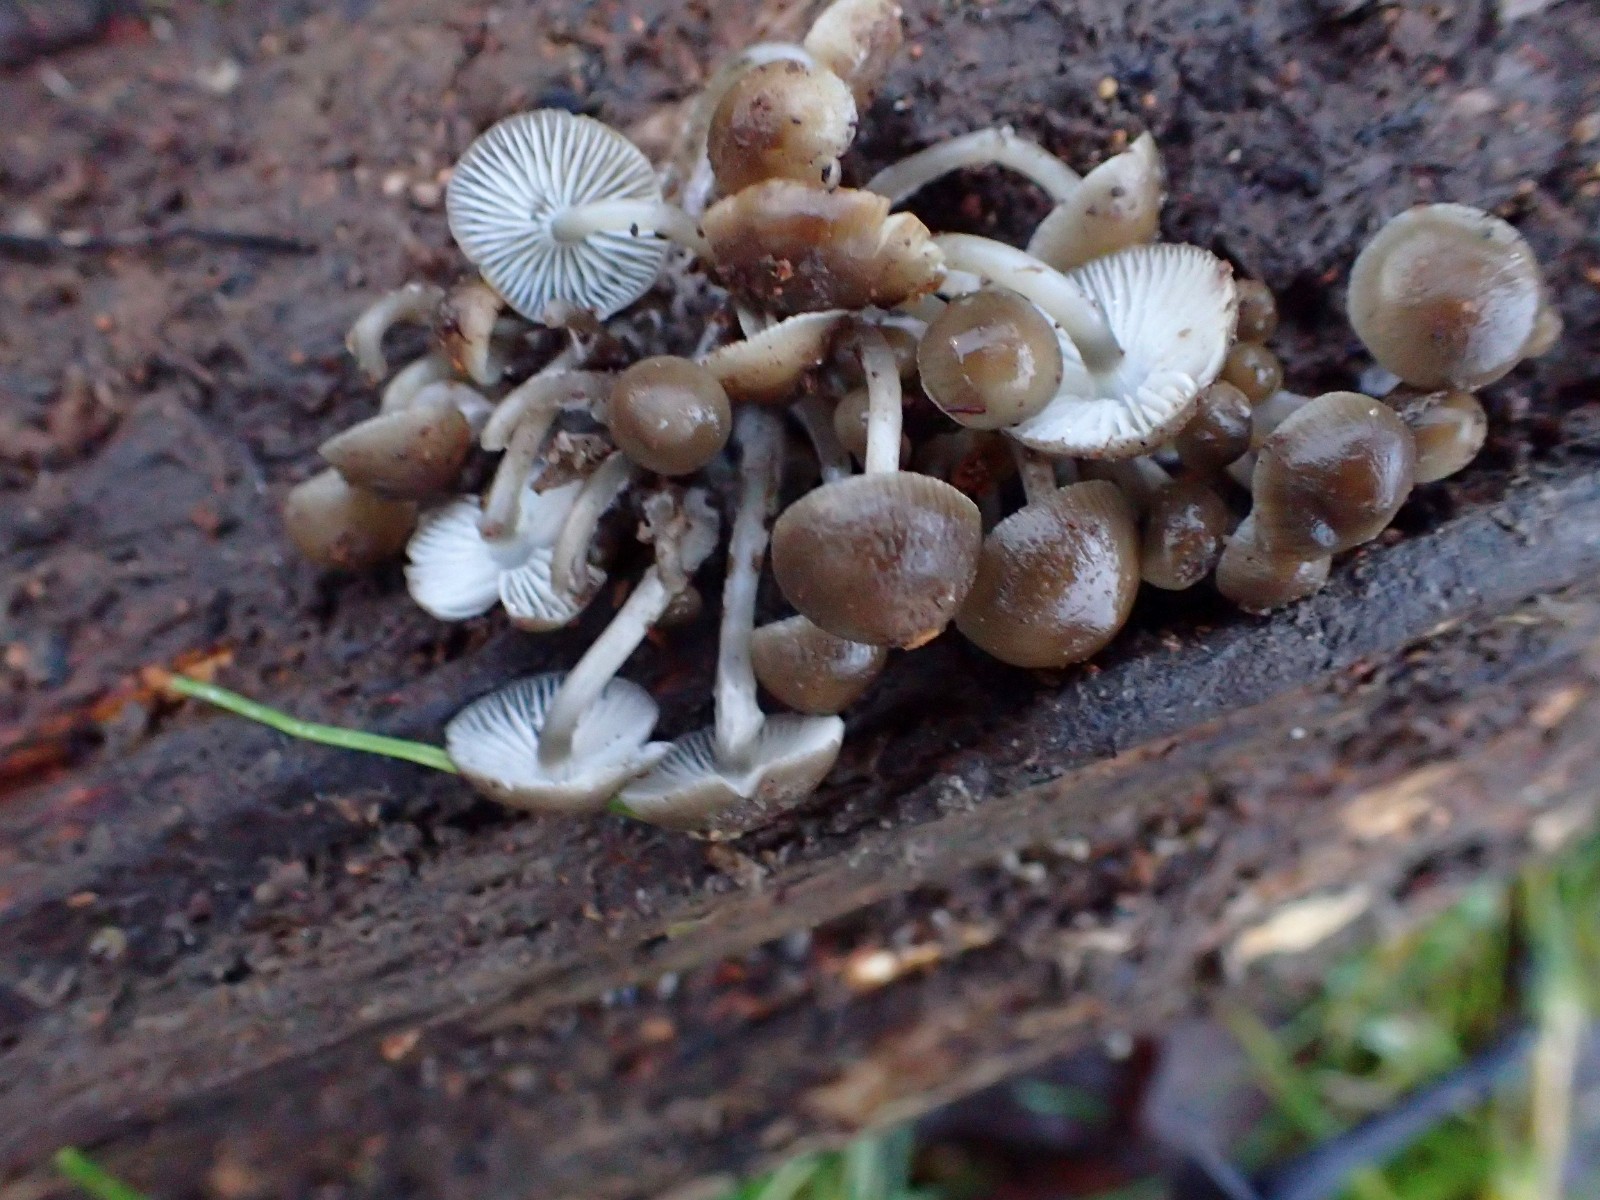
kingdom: Fungi
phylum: Basidiomycota
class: Agaricomycetes
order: Agaricales
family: Mycenaceae
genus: Mycena
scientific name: Mycena tintinnabulum
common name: vinter-huesvamp
